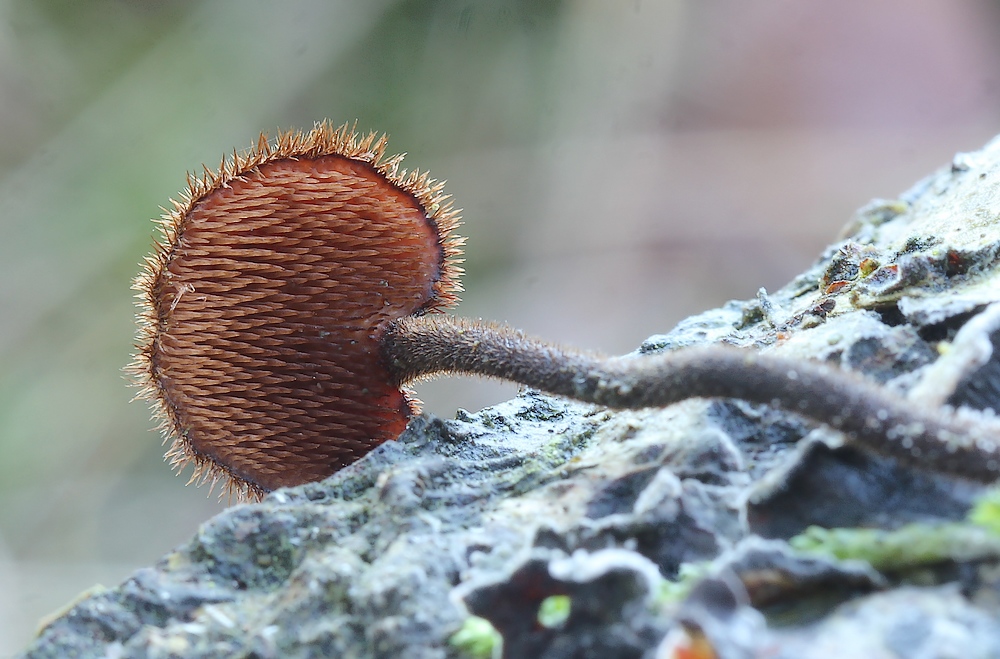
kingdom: Fungi
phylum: Basidiomycota
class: Agaricomycetes
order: Russulales
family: Auriscalpiaceae
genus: Auriscalpium
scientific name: Auriscalpium vulgare
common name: koglepigsvamp
